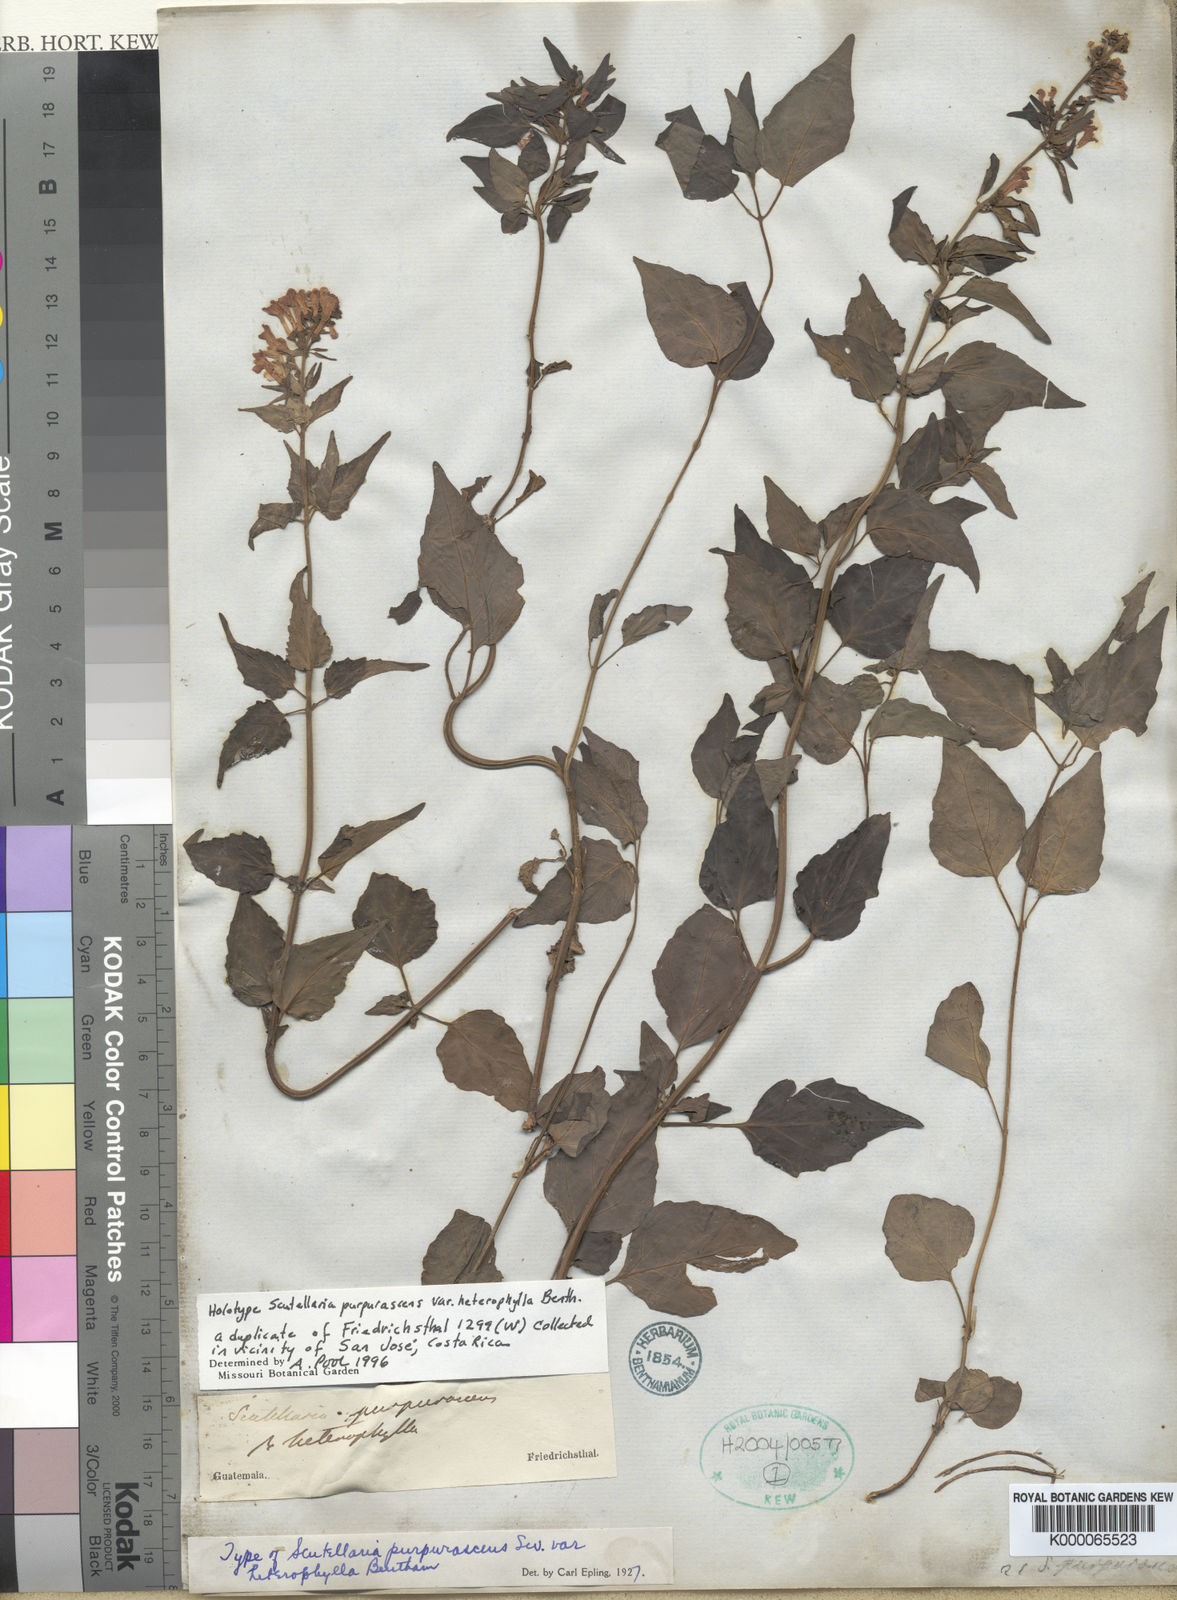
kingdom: Plantae
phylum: Tracheophyta
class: Magnoliopsida
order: Lamiales
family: Lamiaceae
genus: Scutellaria
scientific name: Scutellaria purpurascens
